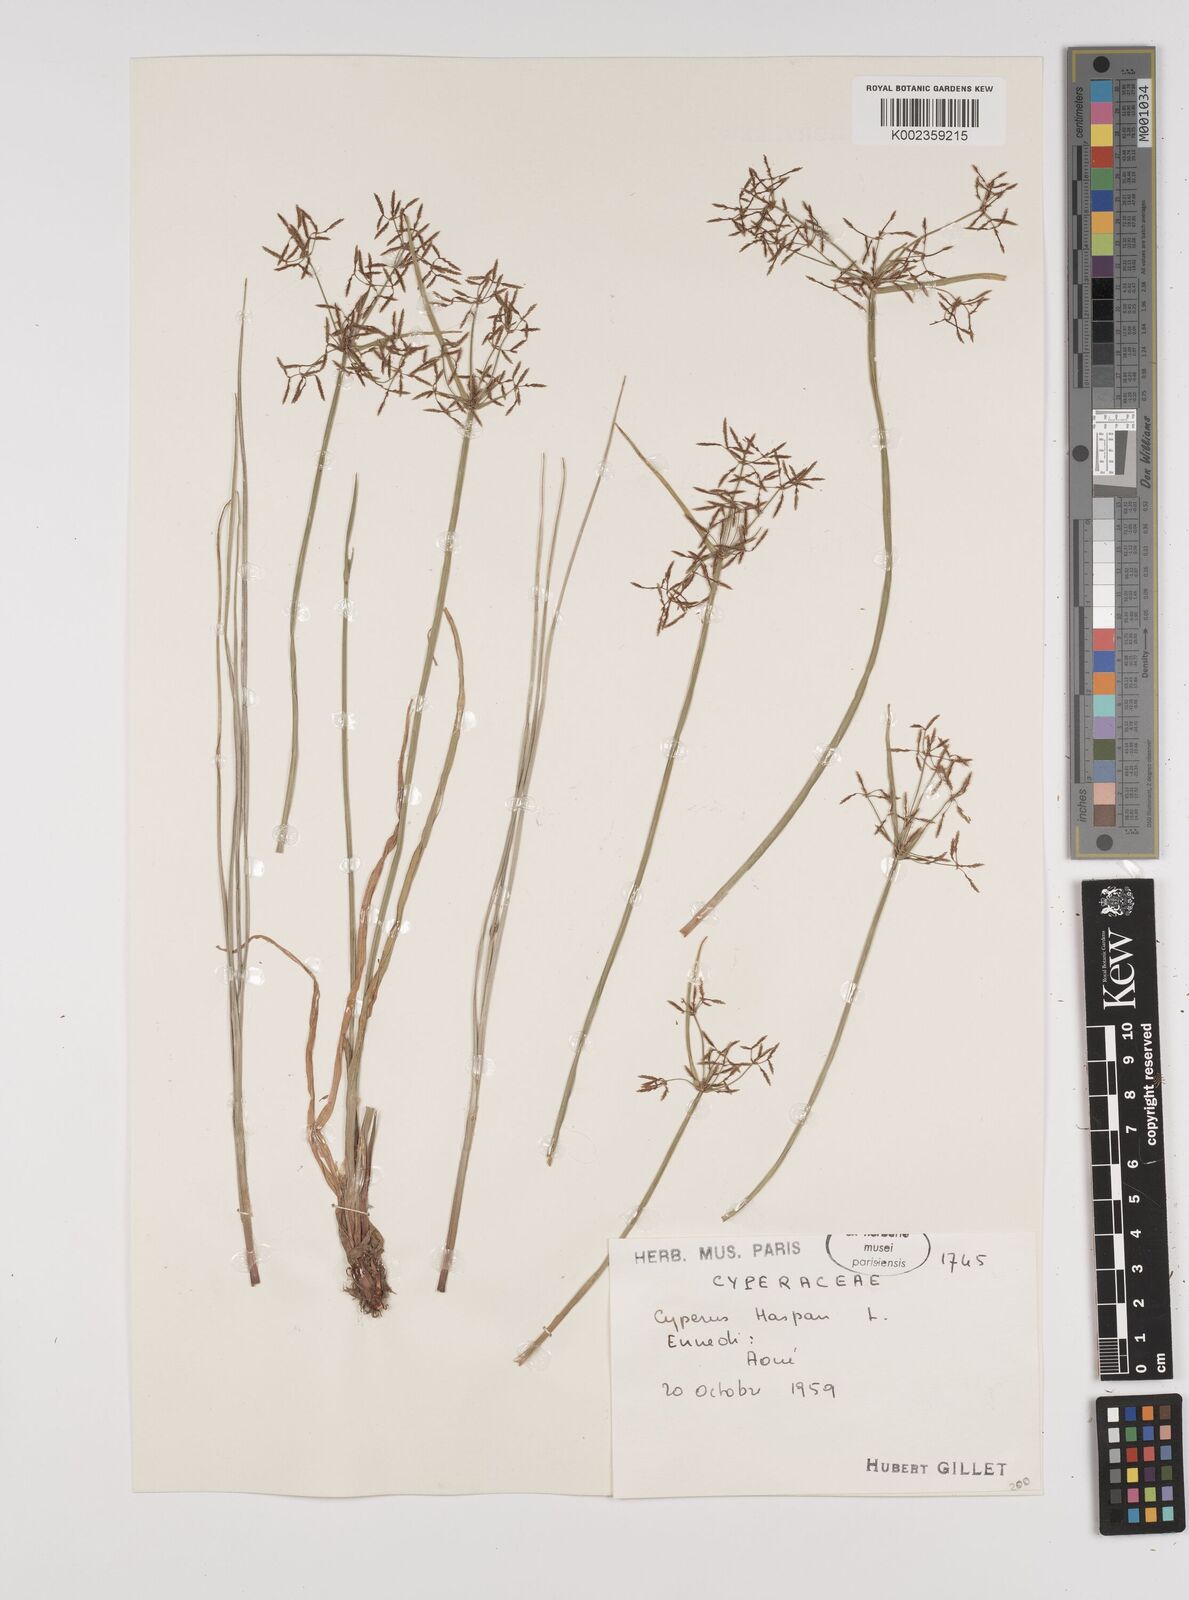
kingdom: Plantae
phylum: Tracheophyta
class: Liliopsida
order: Poales
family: Cyperaceae
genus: Cyperus
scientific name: Cyperus haspan
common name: Haspan flatsedge
